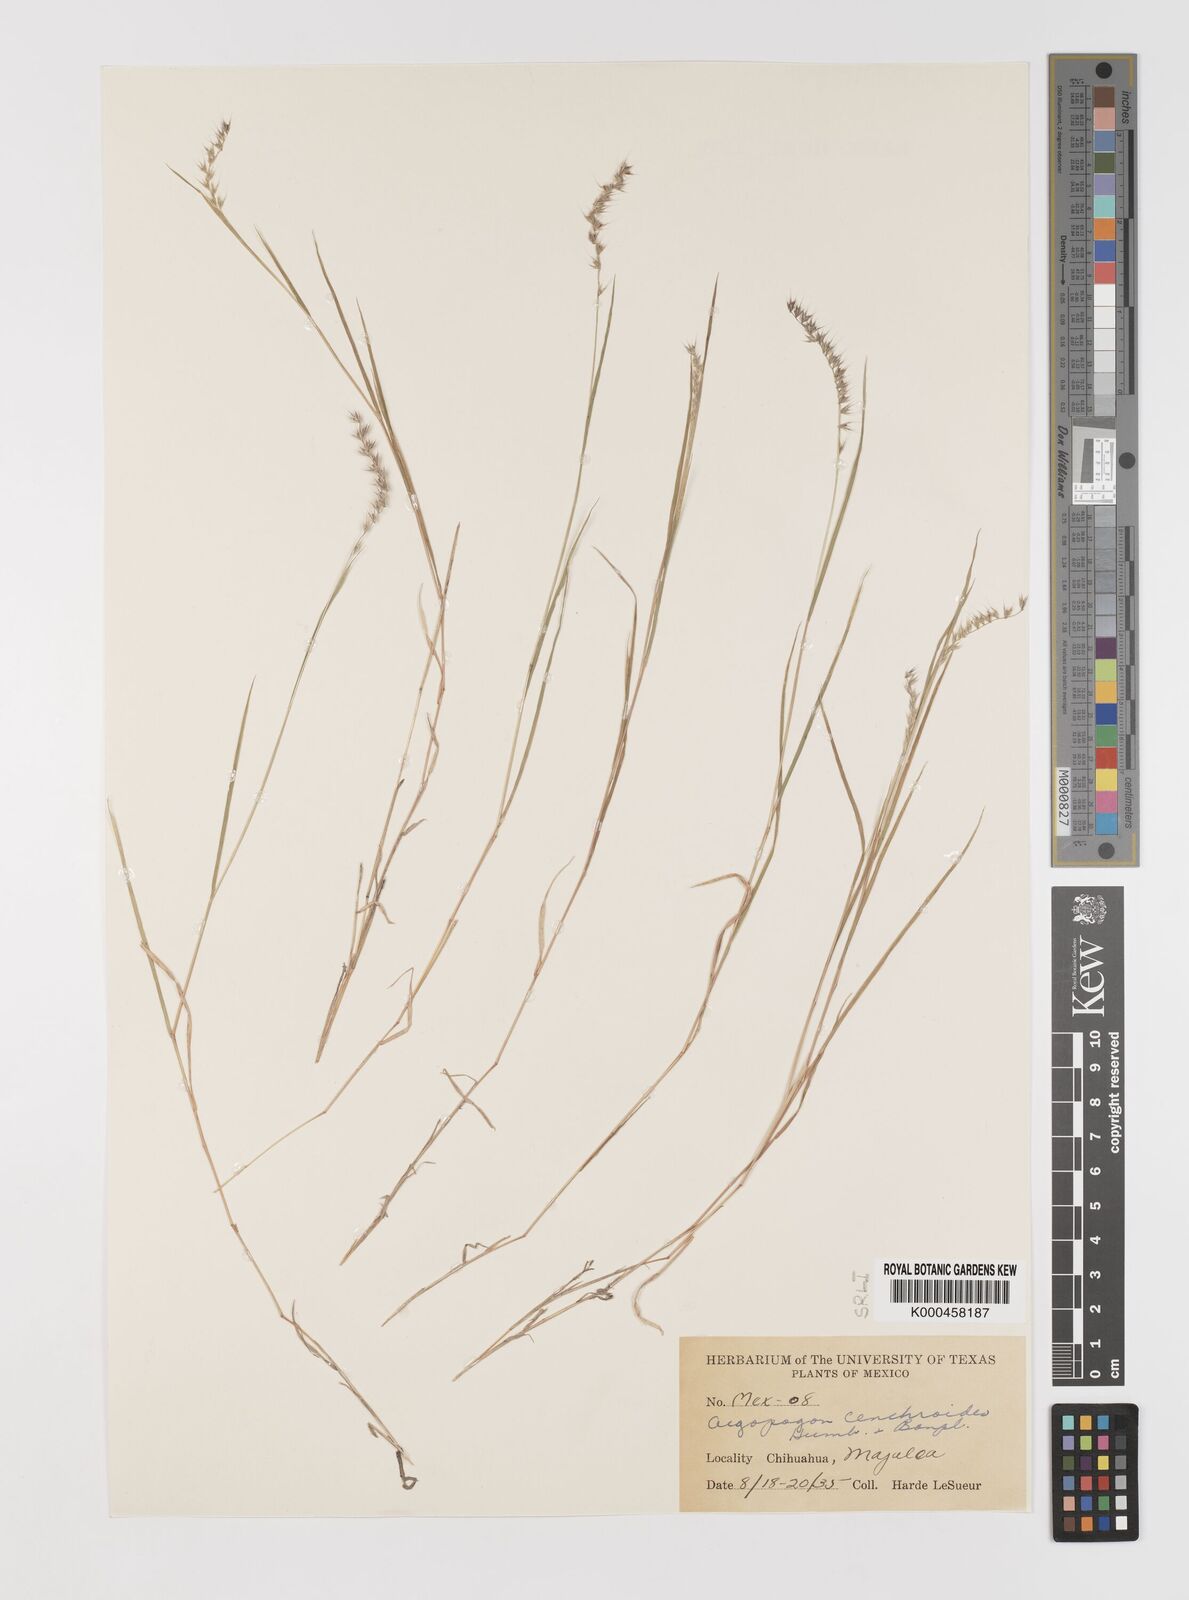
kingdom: Plantae
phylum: Tracheophyta
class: Liliopsida
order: Poales
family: Poaceae
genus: Muhlenbergia
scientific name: Muhlenbergia
